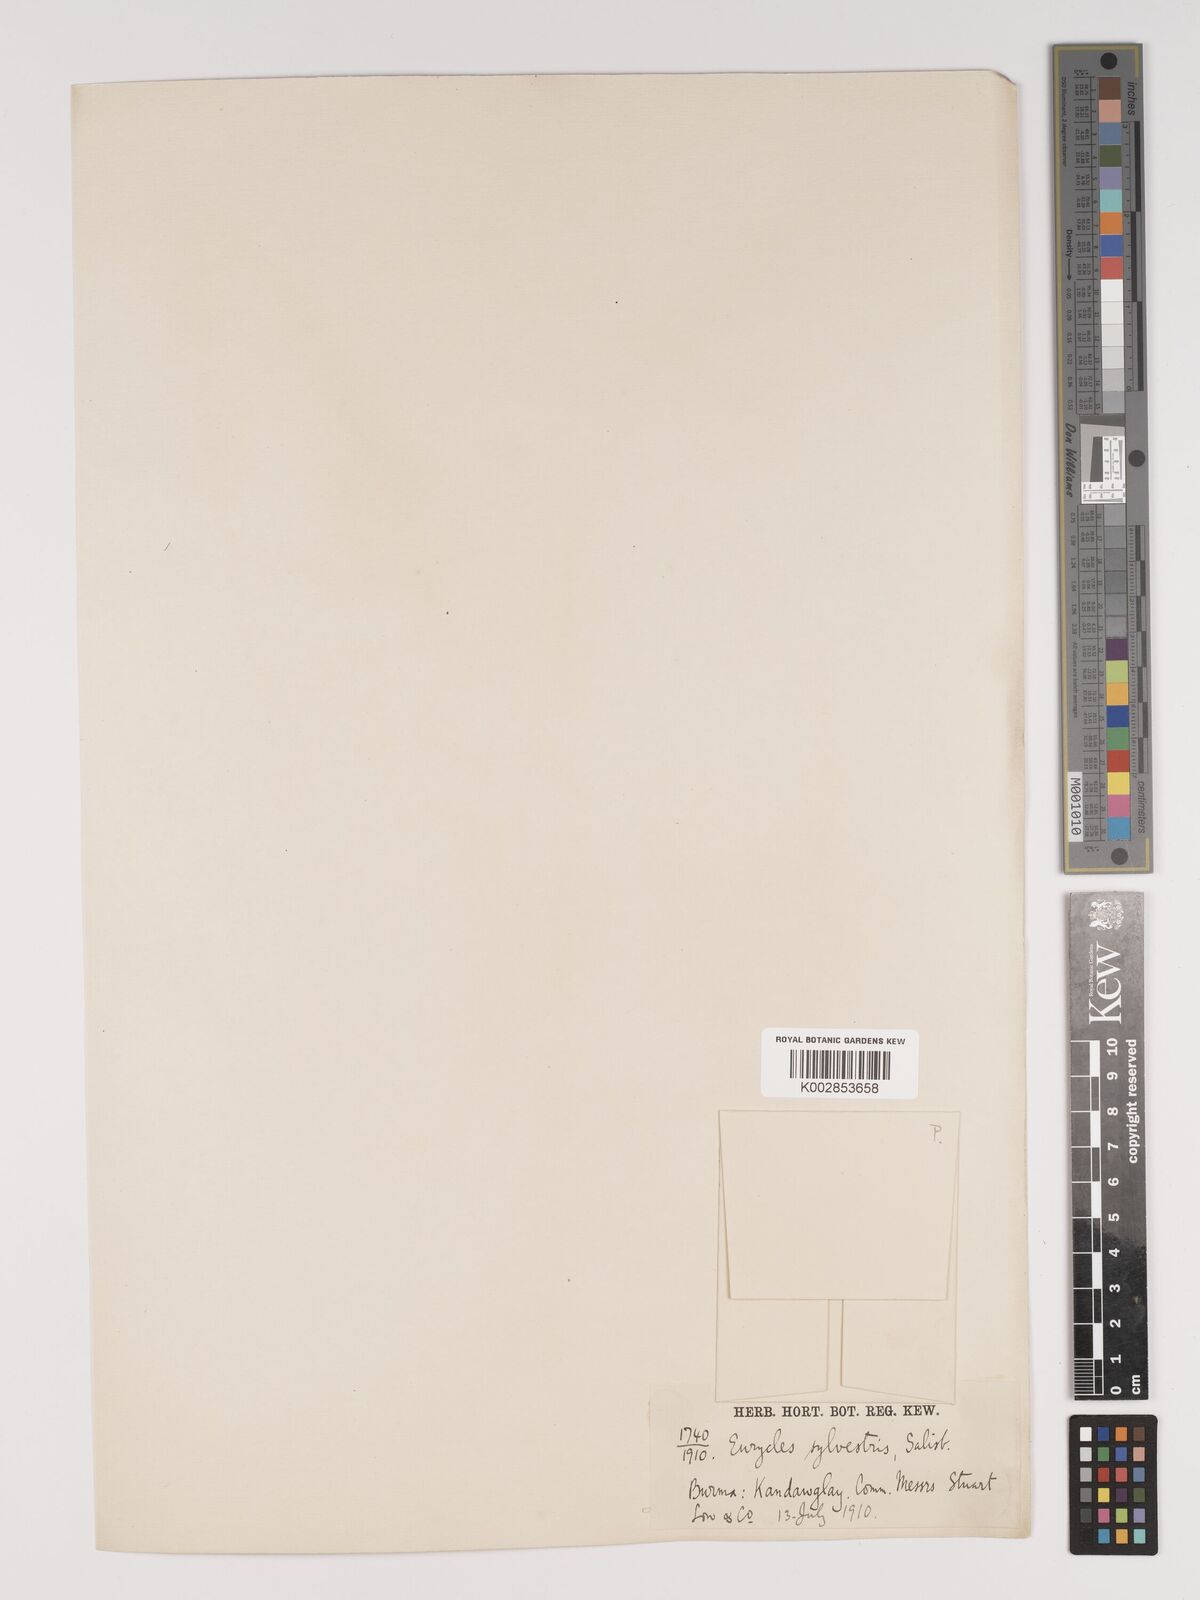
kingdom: Plantae
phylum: Tracheophyta
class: Liliopsida
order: Asparagales
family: Amaryllidaceae
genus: Proiphys
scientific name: Proiphys amboinensis
